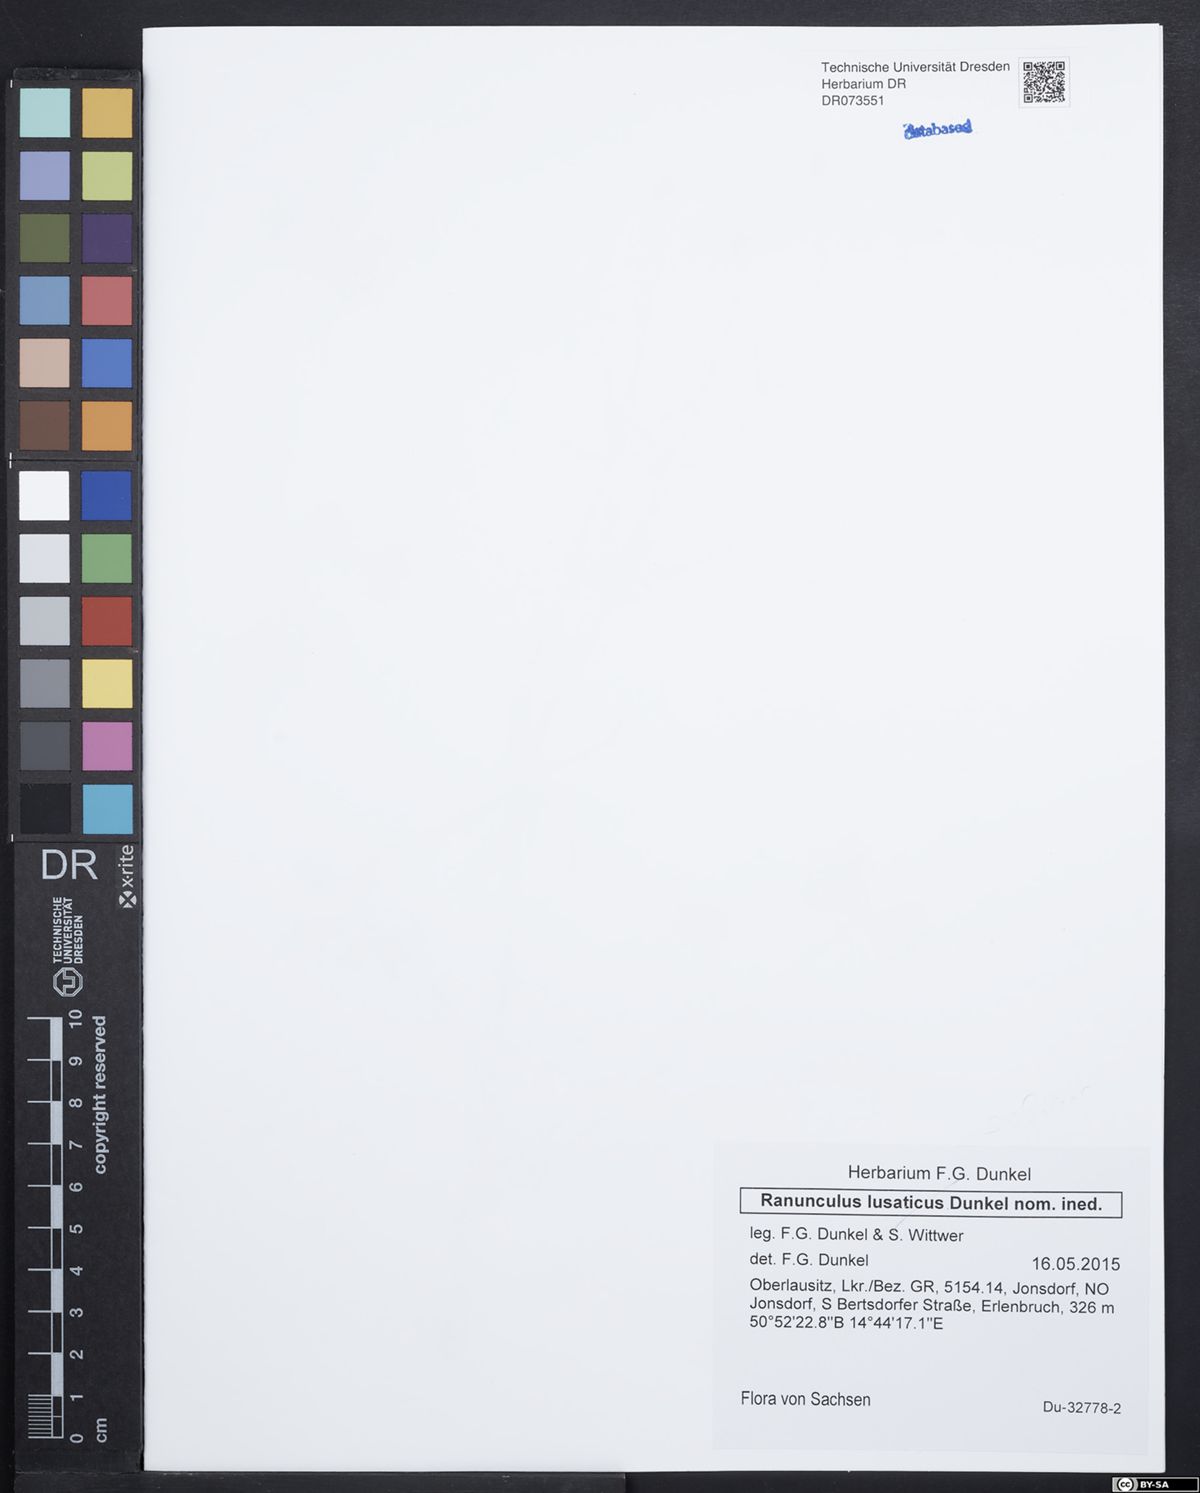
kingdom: Plantae
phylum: Tracheophyta
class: Magnoliopsida
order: Ranunculales
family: Ranunculaceae
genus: Ranunculus
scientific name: Ranunculus lusaticus
